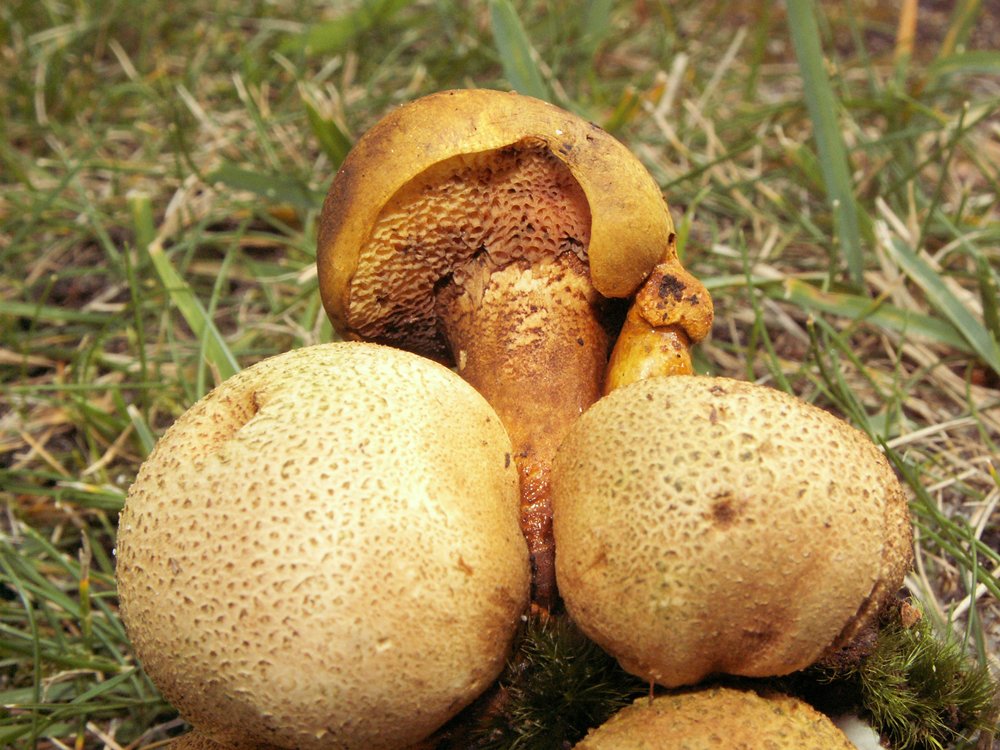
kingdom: Fungi
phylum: Basidiomycota
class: Agaricomycetes
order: Boletales
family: Boletaceae
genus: Pseudoboletus
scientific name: Pseudoboletus parasiticus
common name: snyltende rørhat
